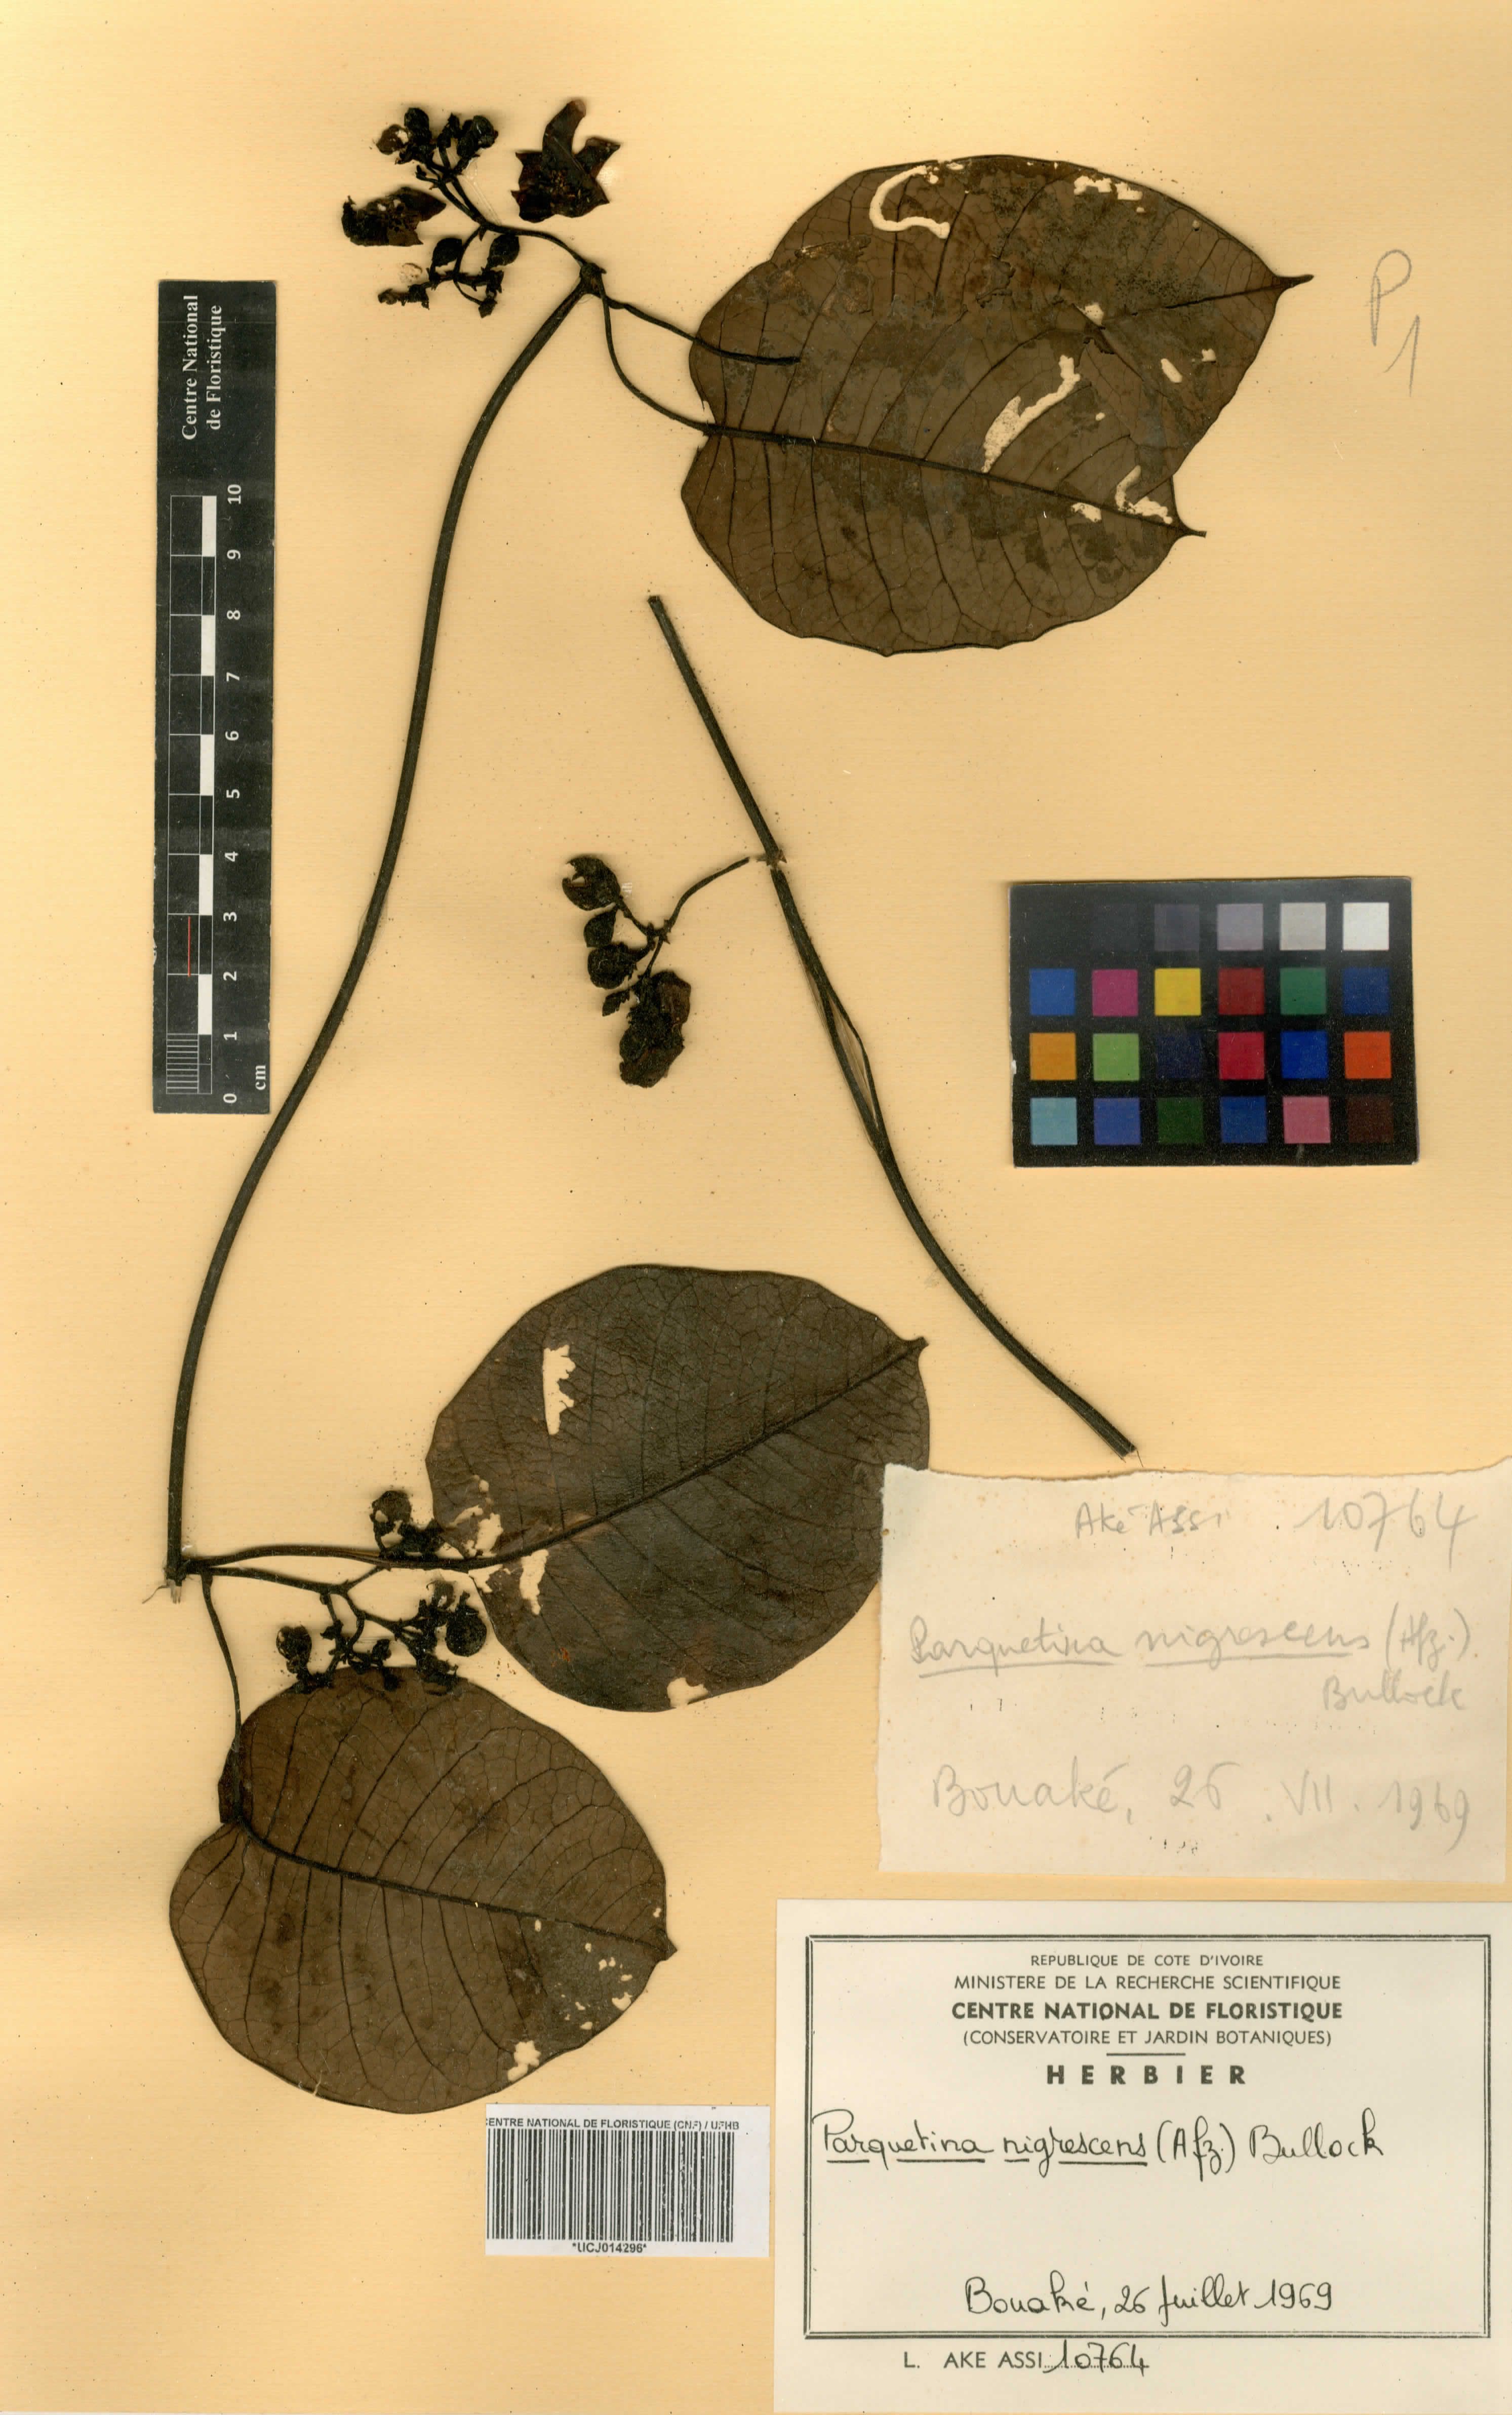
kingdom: Plantae
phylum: Tracheophyta
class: Magnoliopsida
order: Gentianales
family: Apocynaceae
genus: Cryptolepis
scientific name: Cryptolepis nigrescens
